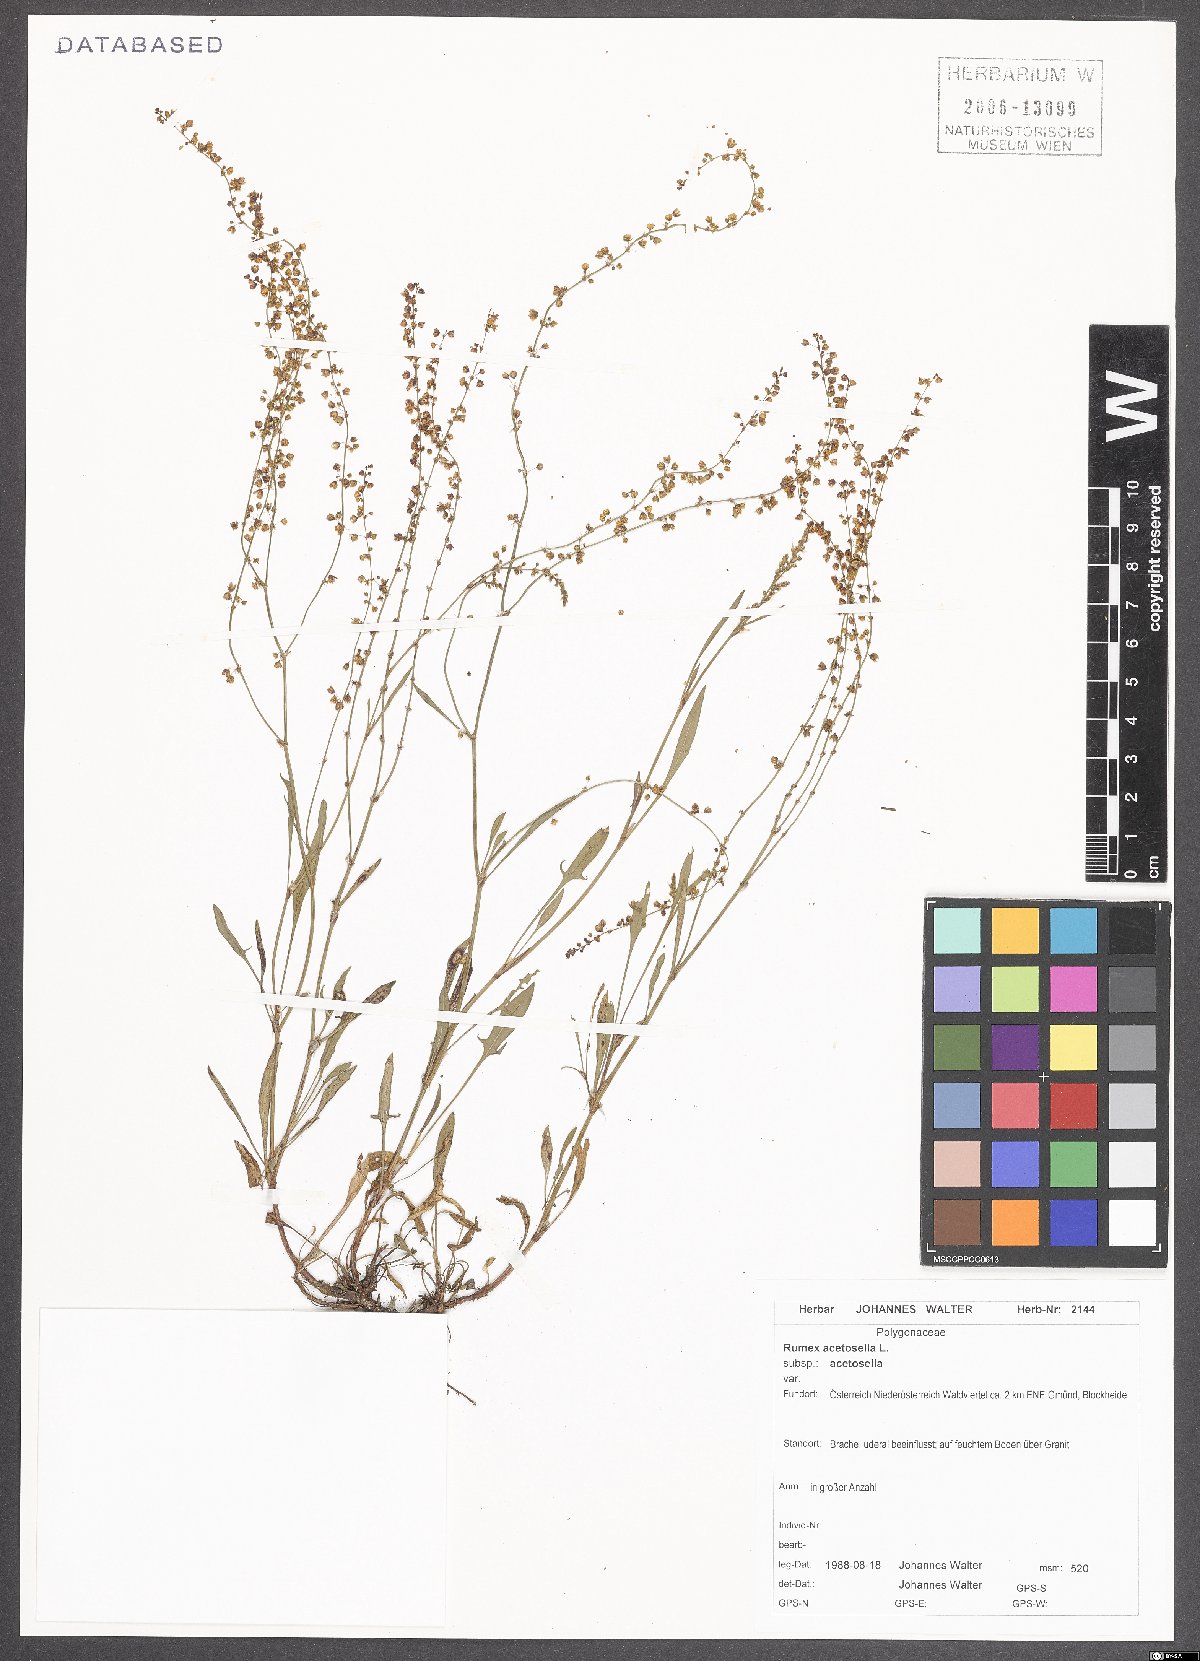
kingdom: Plantae
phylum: Tracheophyta
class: Magnoliopsida
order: Caryophyllales
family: Polygonaceae
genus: Rumex
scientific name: Rumex acetosella
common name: Common sheep sorrel
